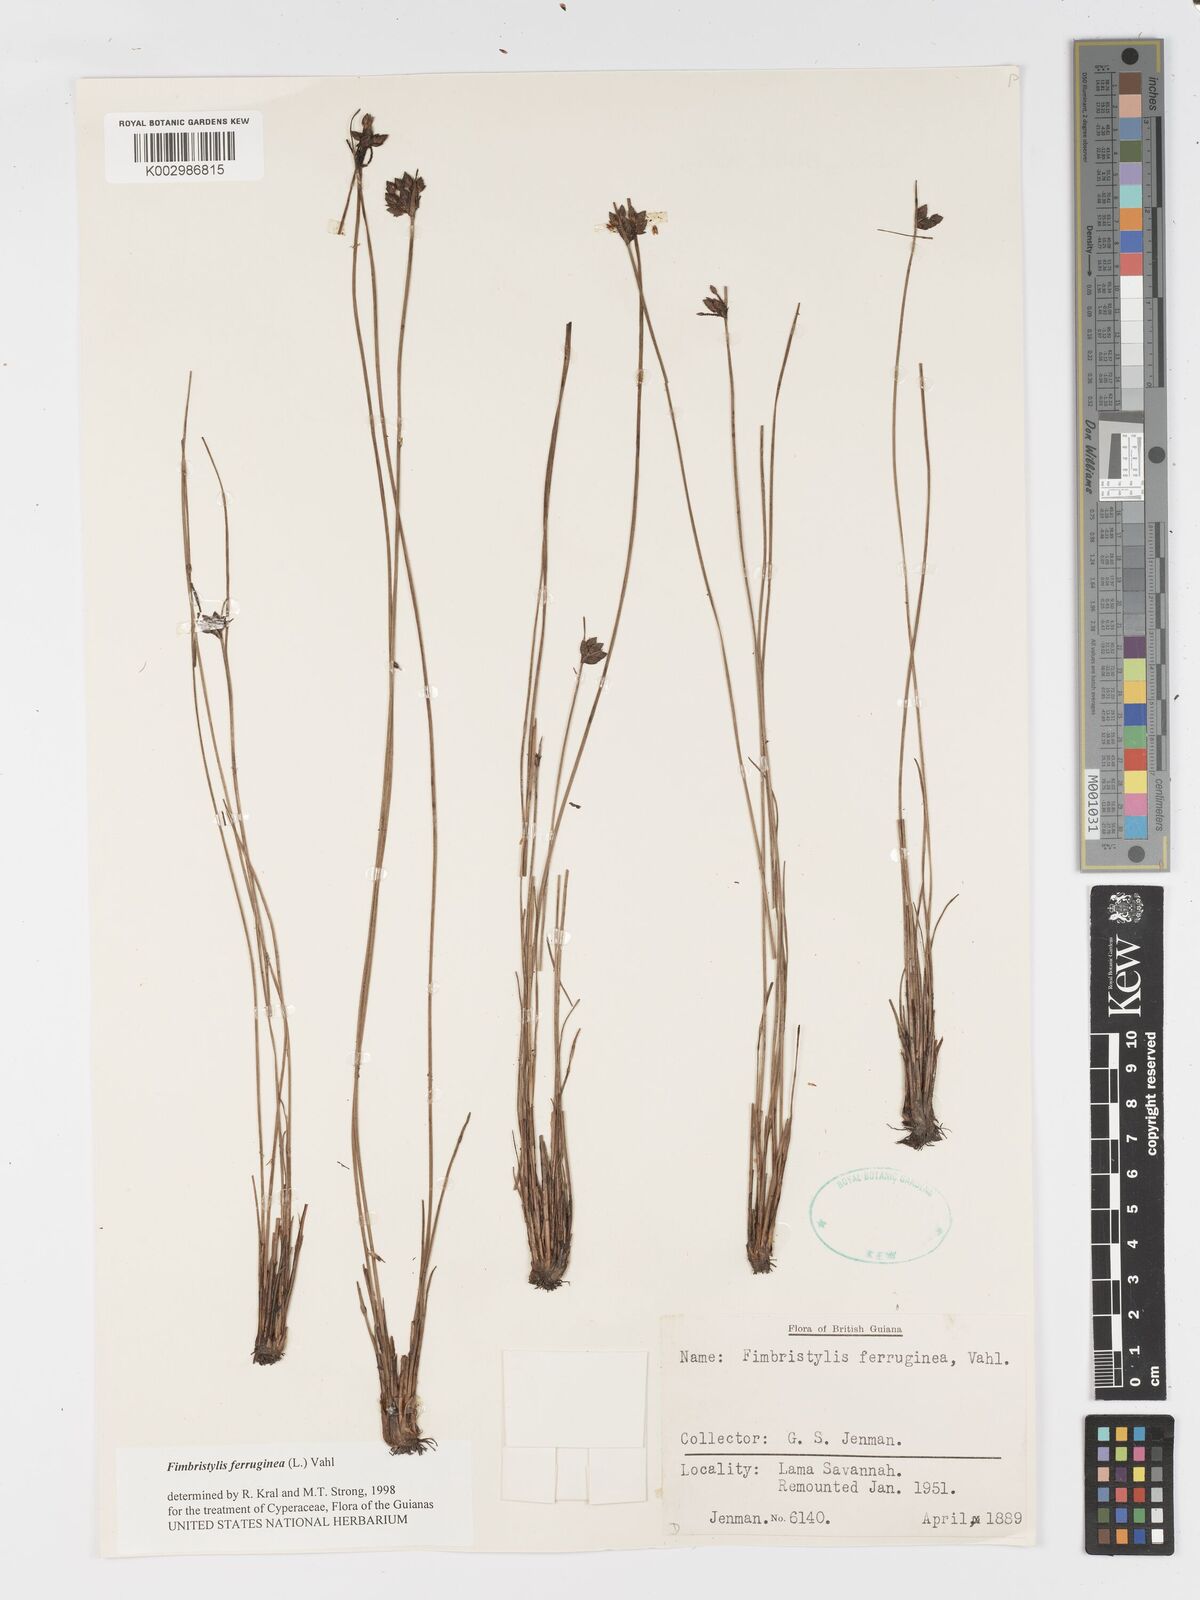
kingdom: Plantae
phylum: Tracheophyta
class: Liliopsida
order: Poales
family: Cyperaceae
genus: Fimbristylis
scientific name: Fimbristylis ferruginea
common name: West indian fimbry
